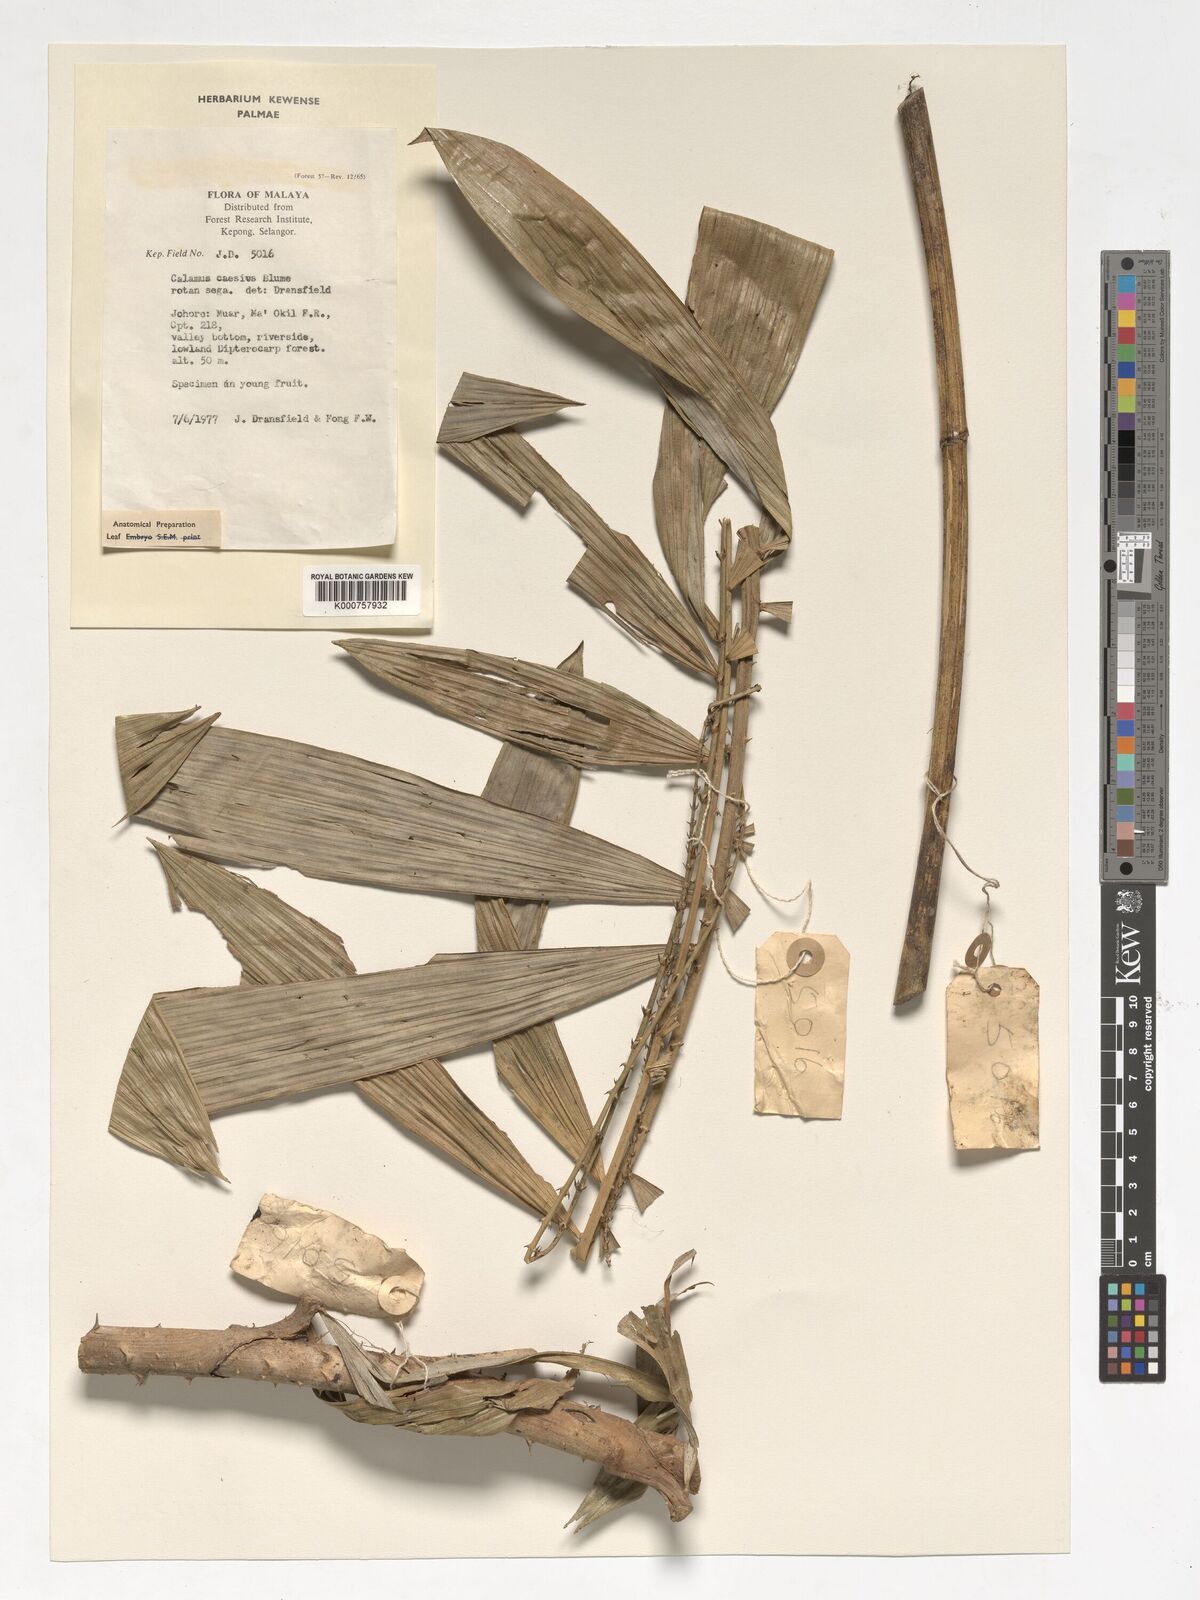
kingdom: Plantae
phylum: Tracheophyta
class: Liliopsida
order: Arecales
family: Arecaceae
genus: Calamus
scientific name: Calamus caesius
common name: Rattan palm
